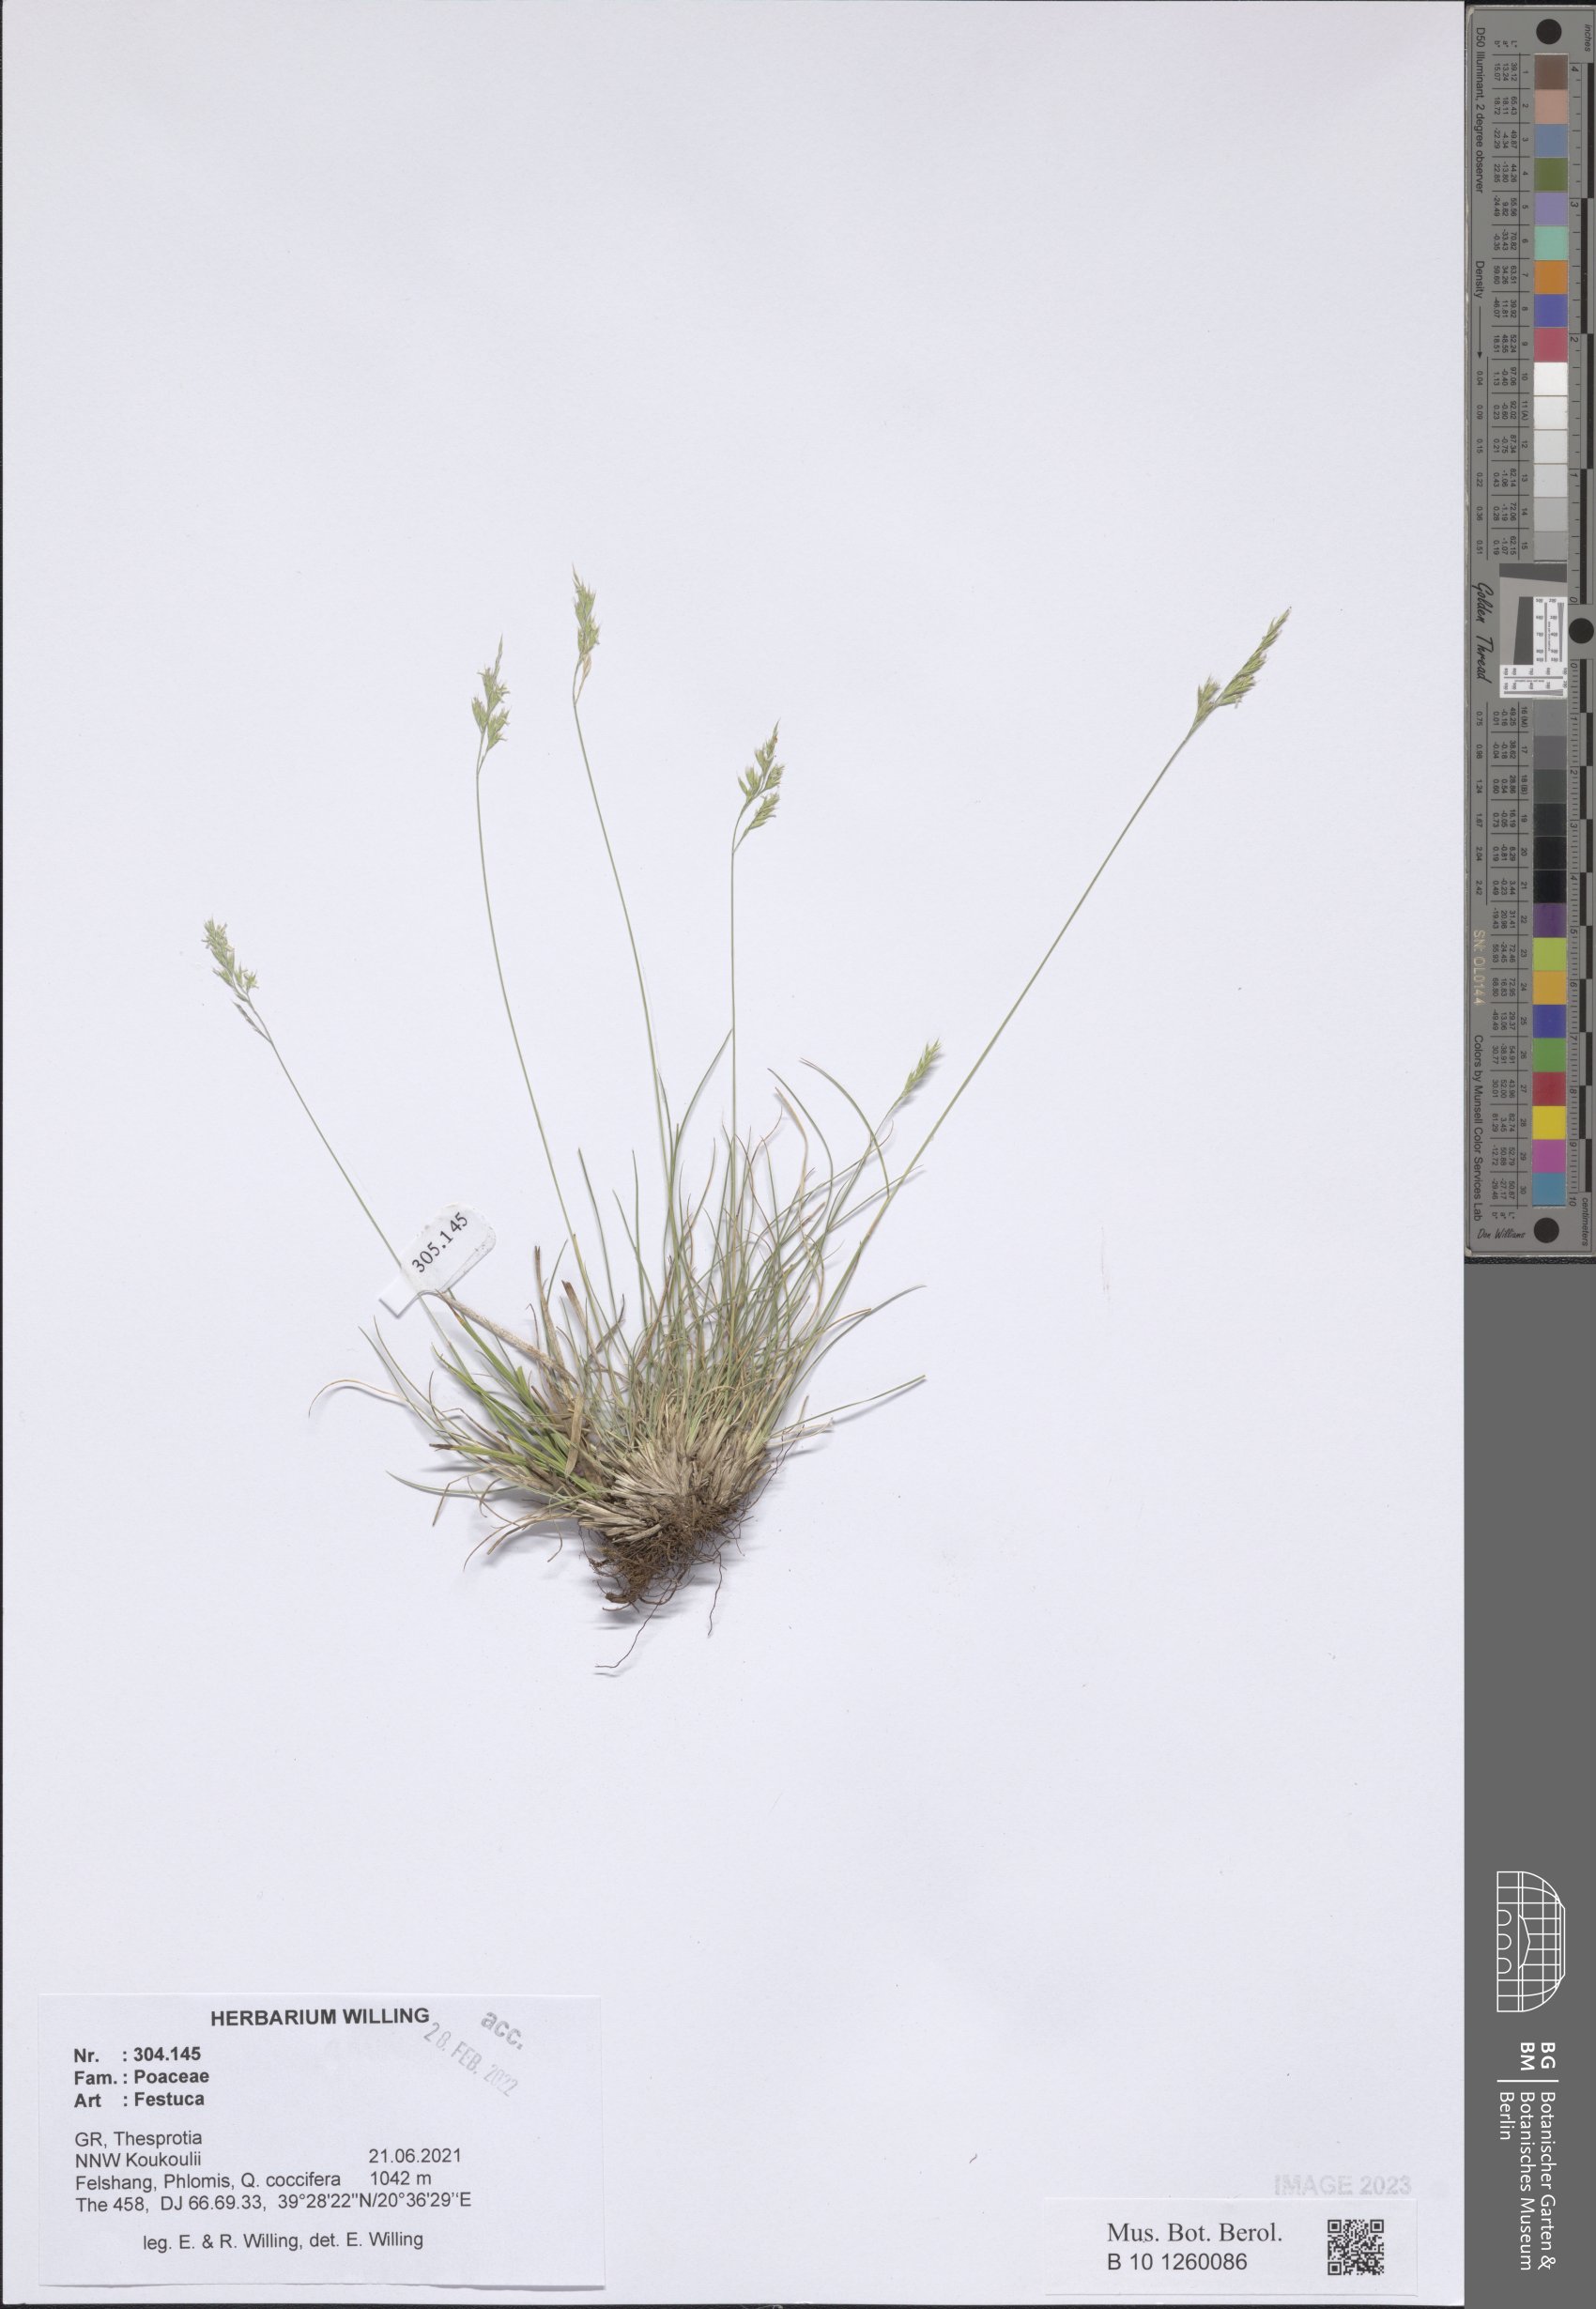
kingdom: Plantae
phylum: Tracheophyta
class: Liliopsida
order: Poales
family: Poaceae
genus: Festuca
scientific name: Festuca
